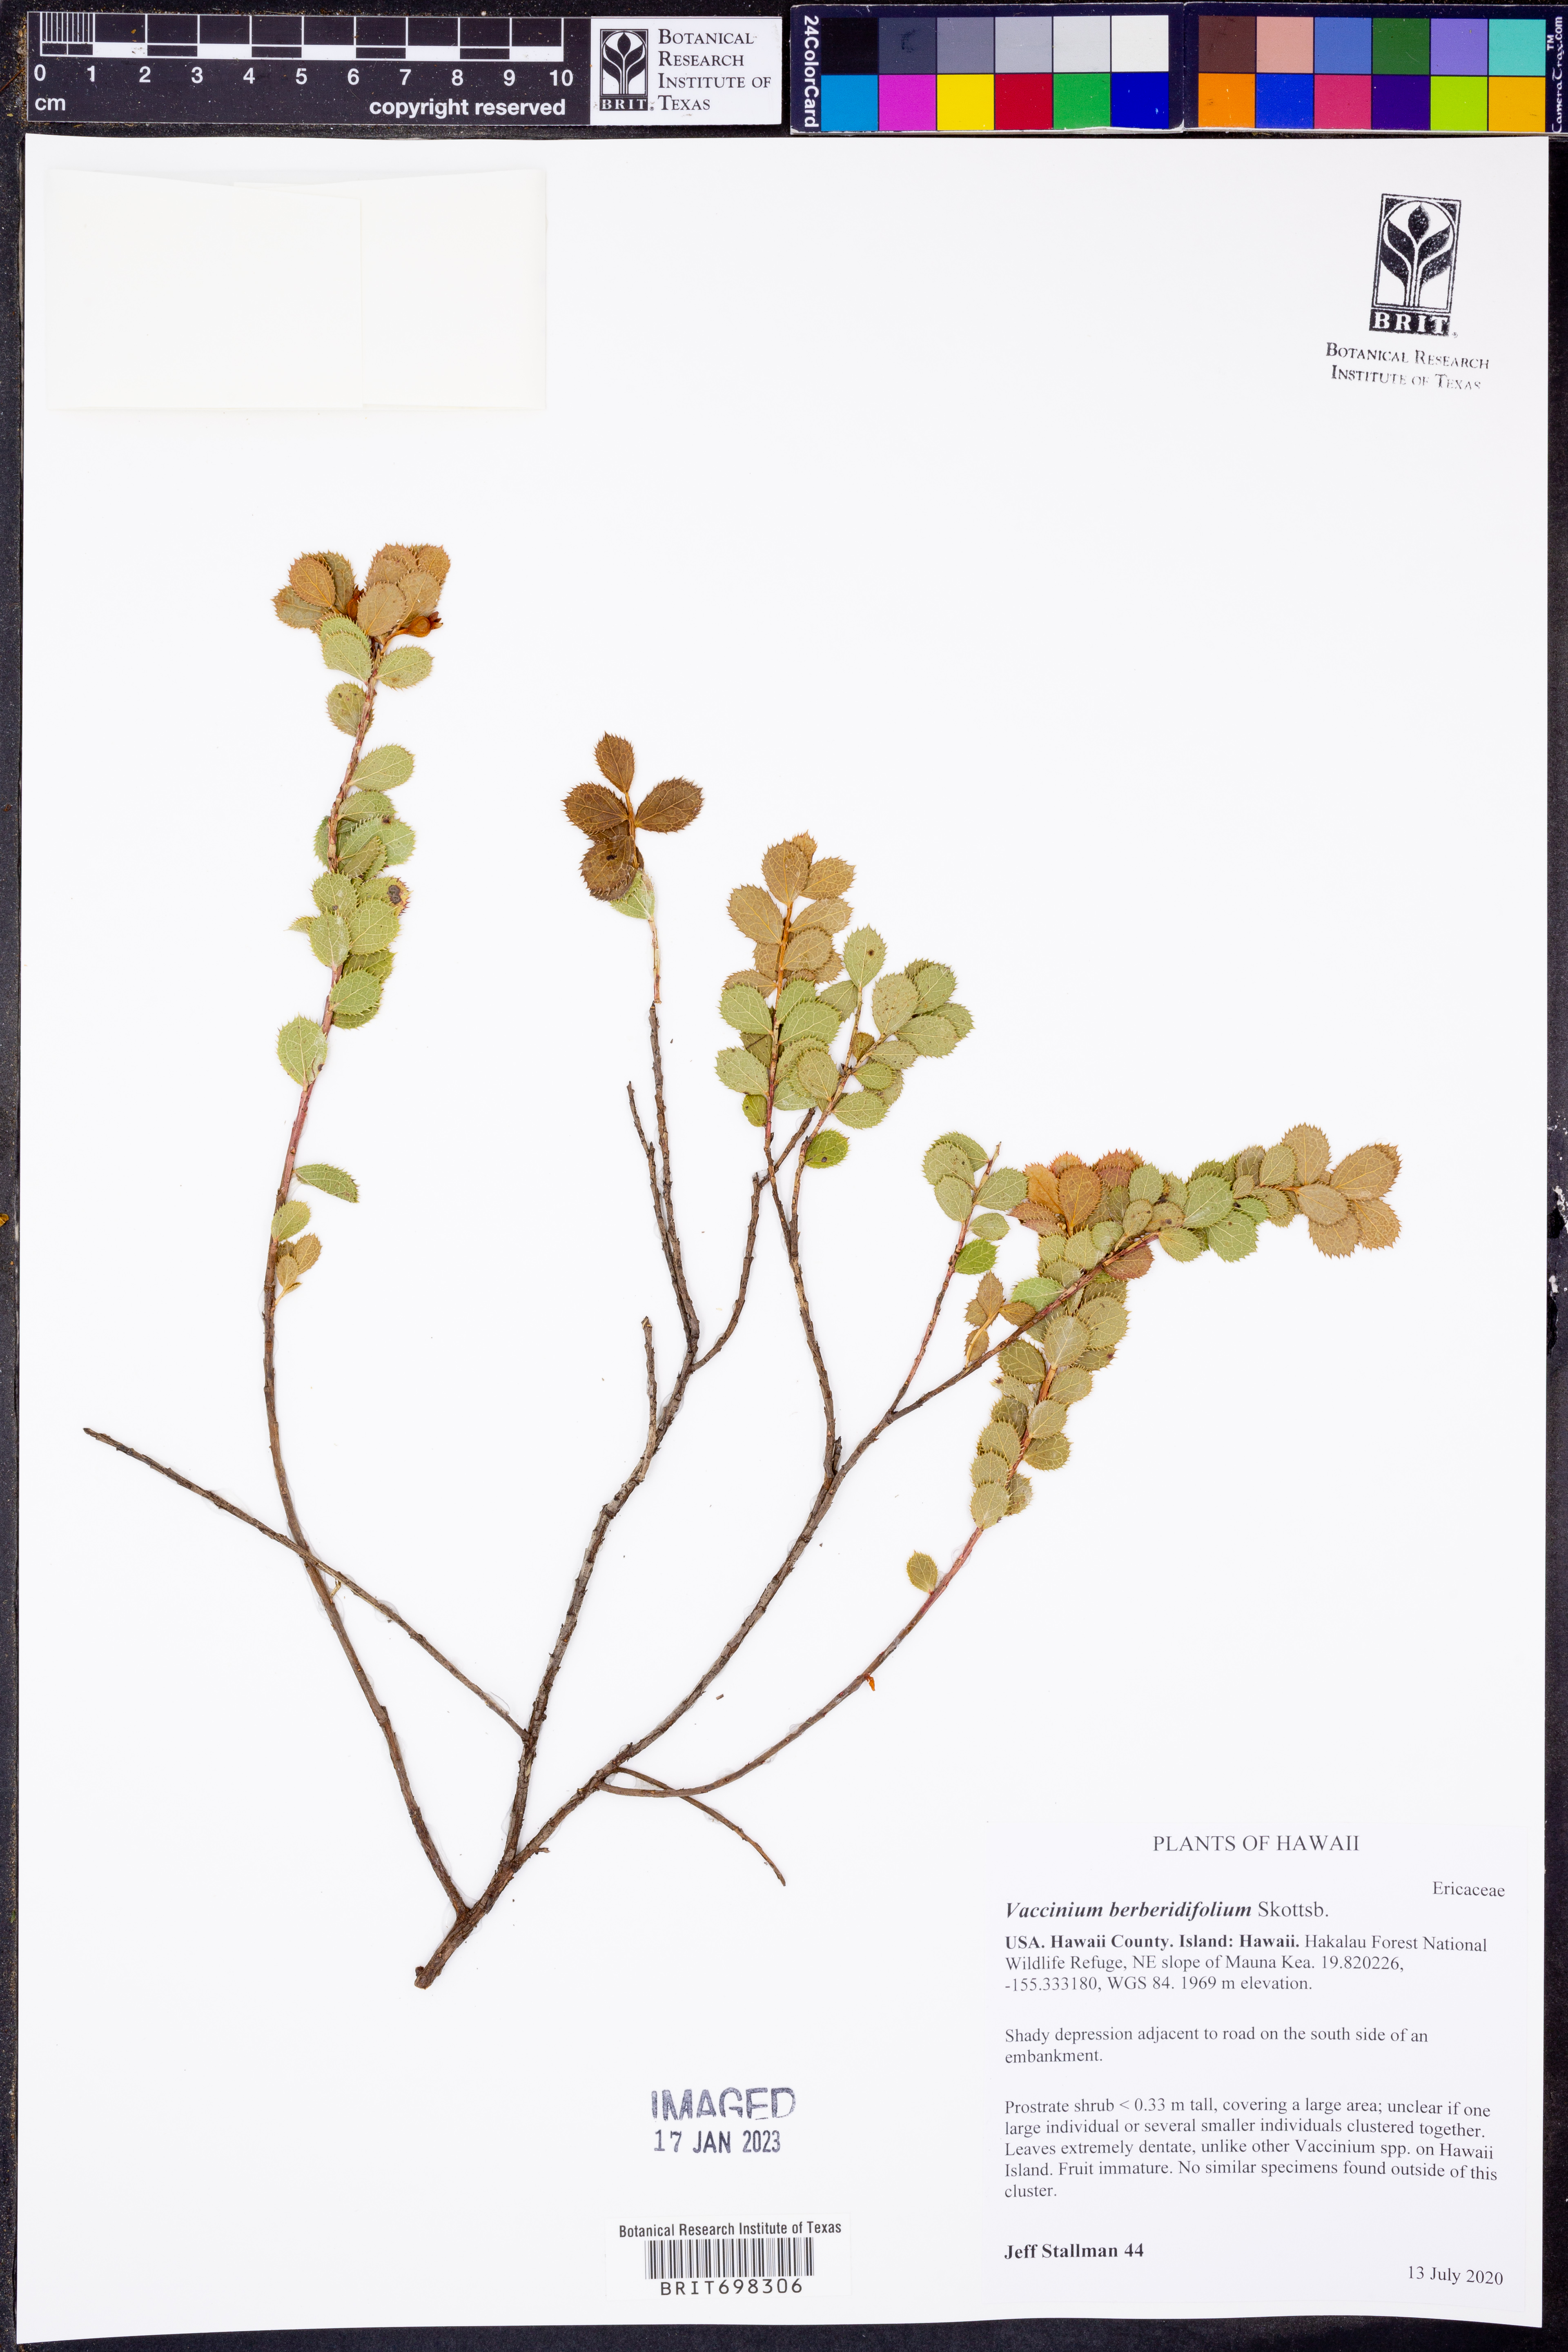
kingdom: Plantae
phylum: Tracheophyta
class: Magnoliopsida
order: Ericales
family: Ericaceae
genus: Vaccinium
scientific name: Vaccinium reticulatum
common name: Ohelo
